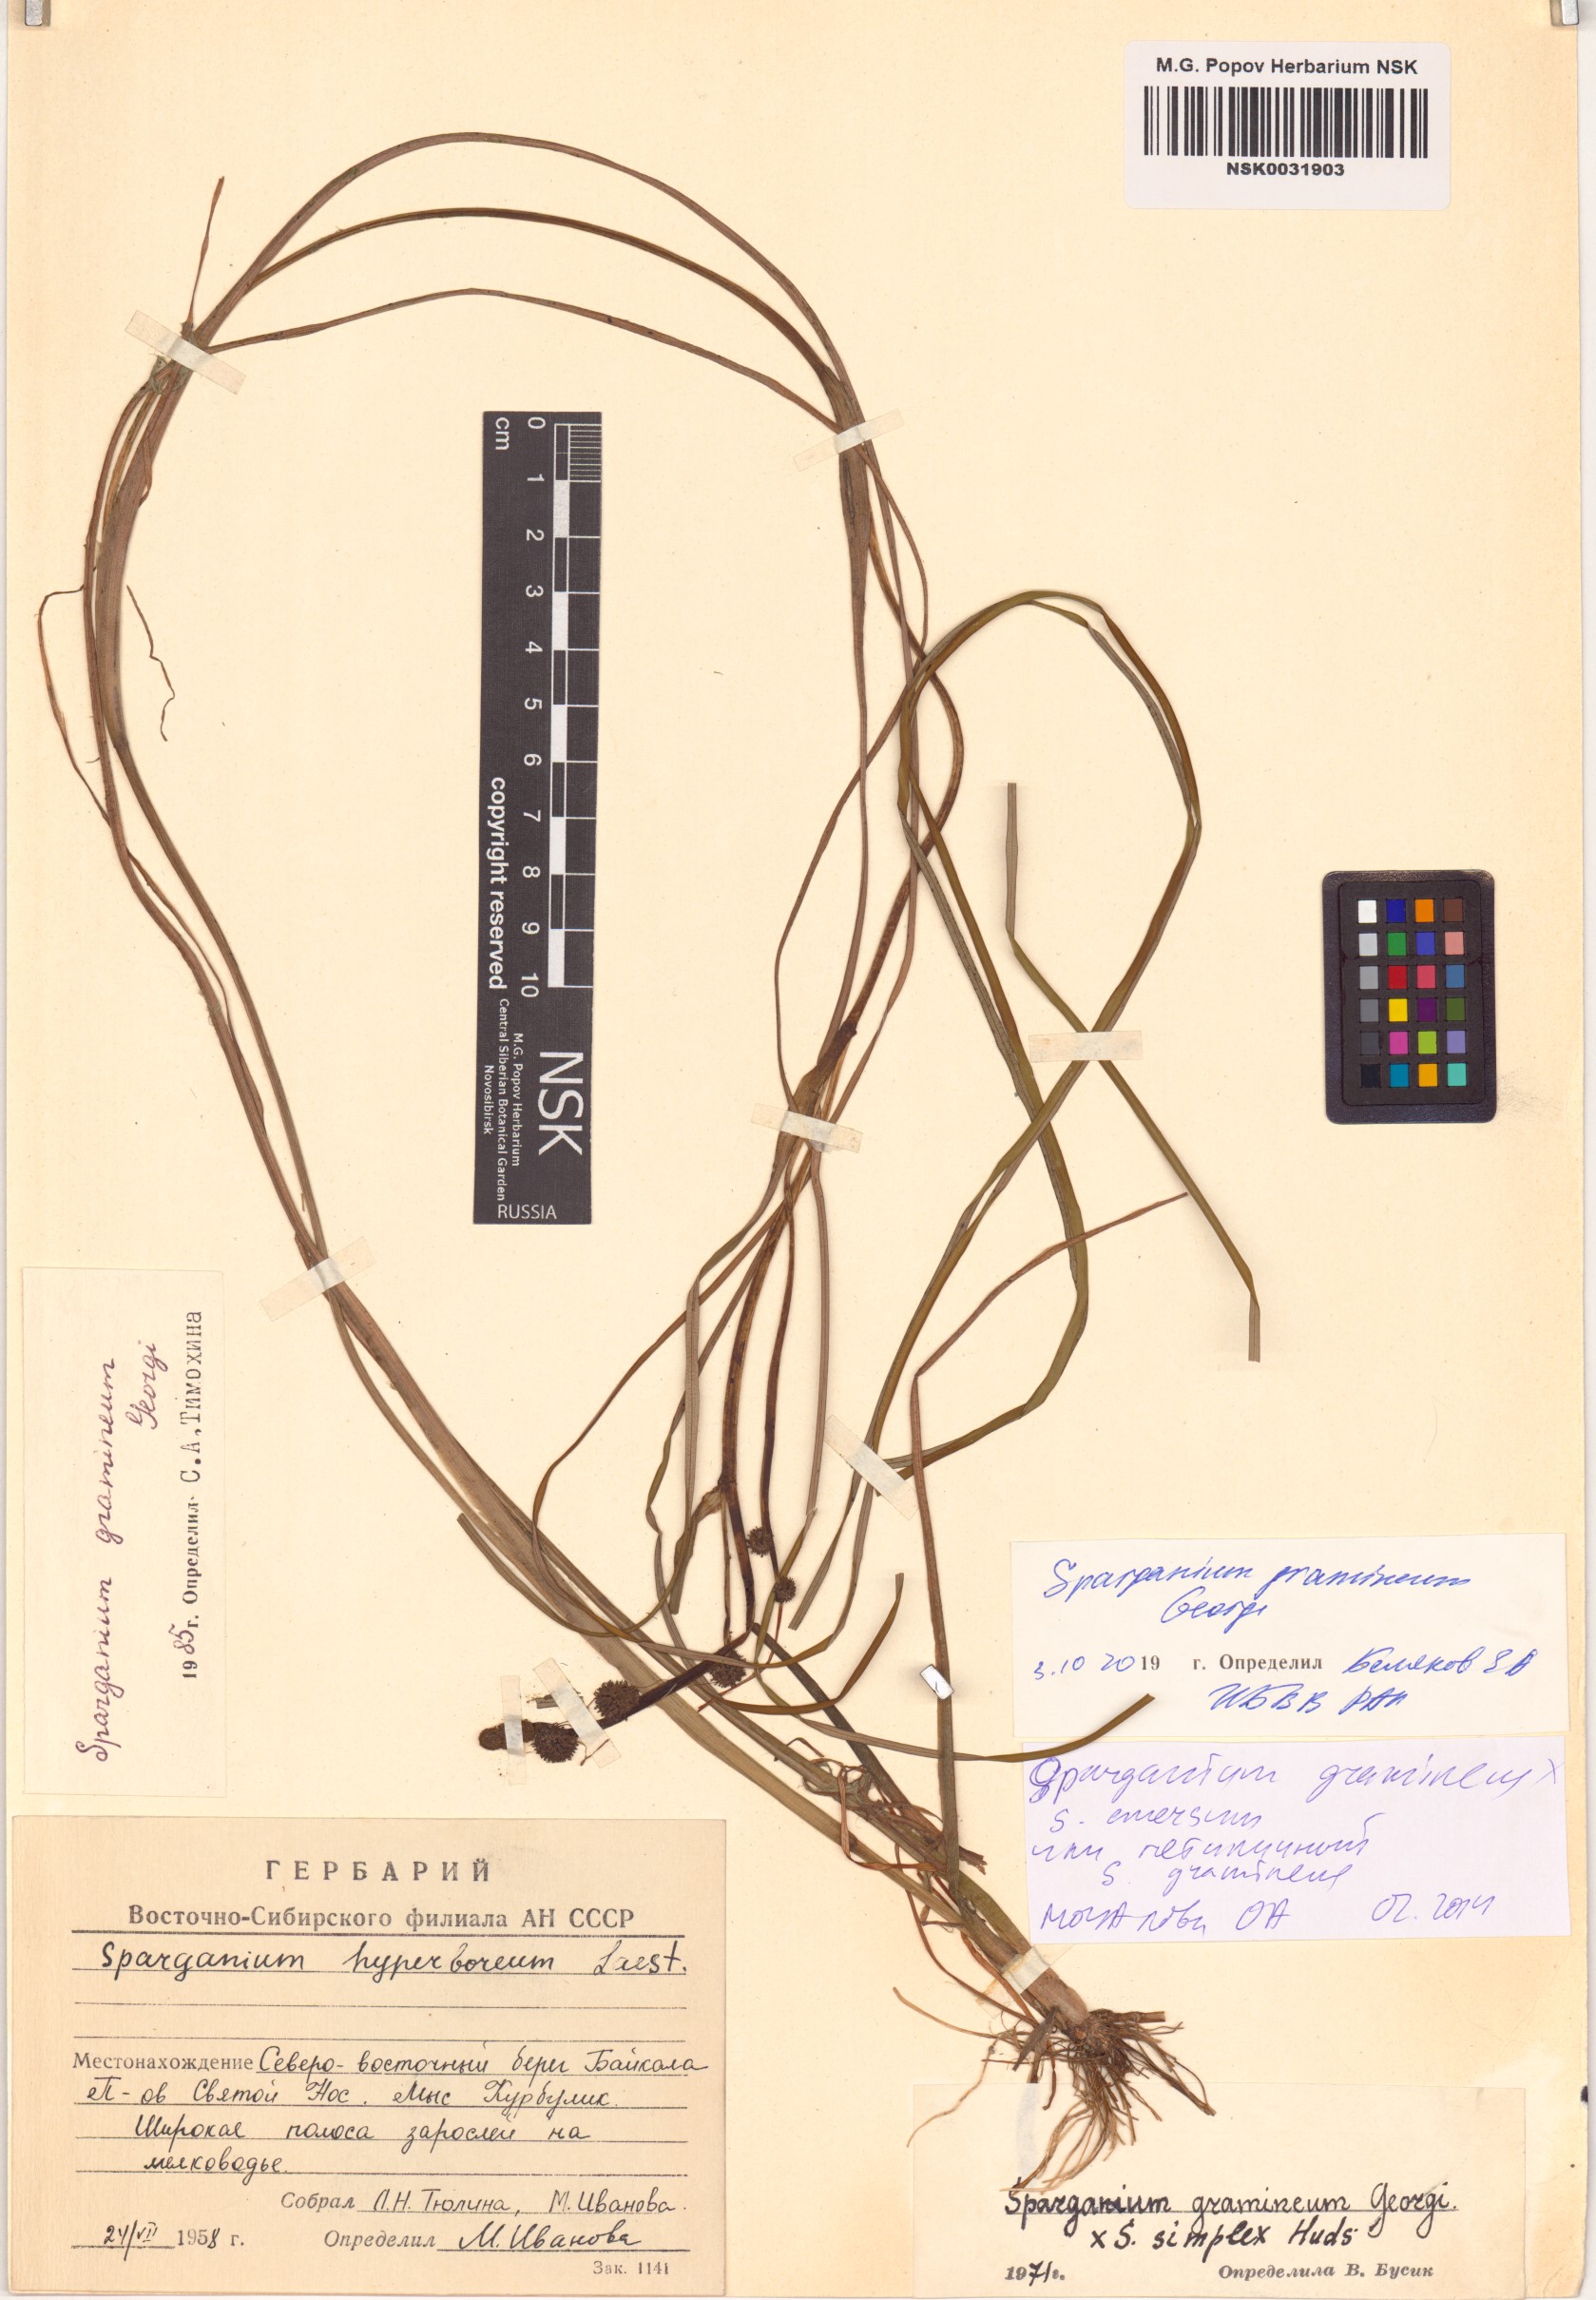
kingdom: Plantae
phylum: Tracheophyta
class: Liliopsida
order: Poales
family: Typhaceae
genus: Sparganium
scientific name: Sparganium gramineum
